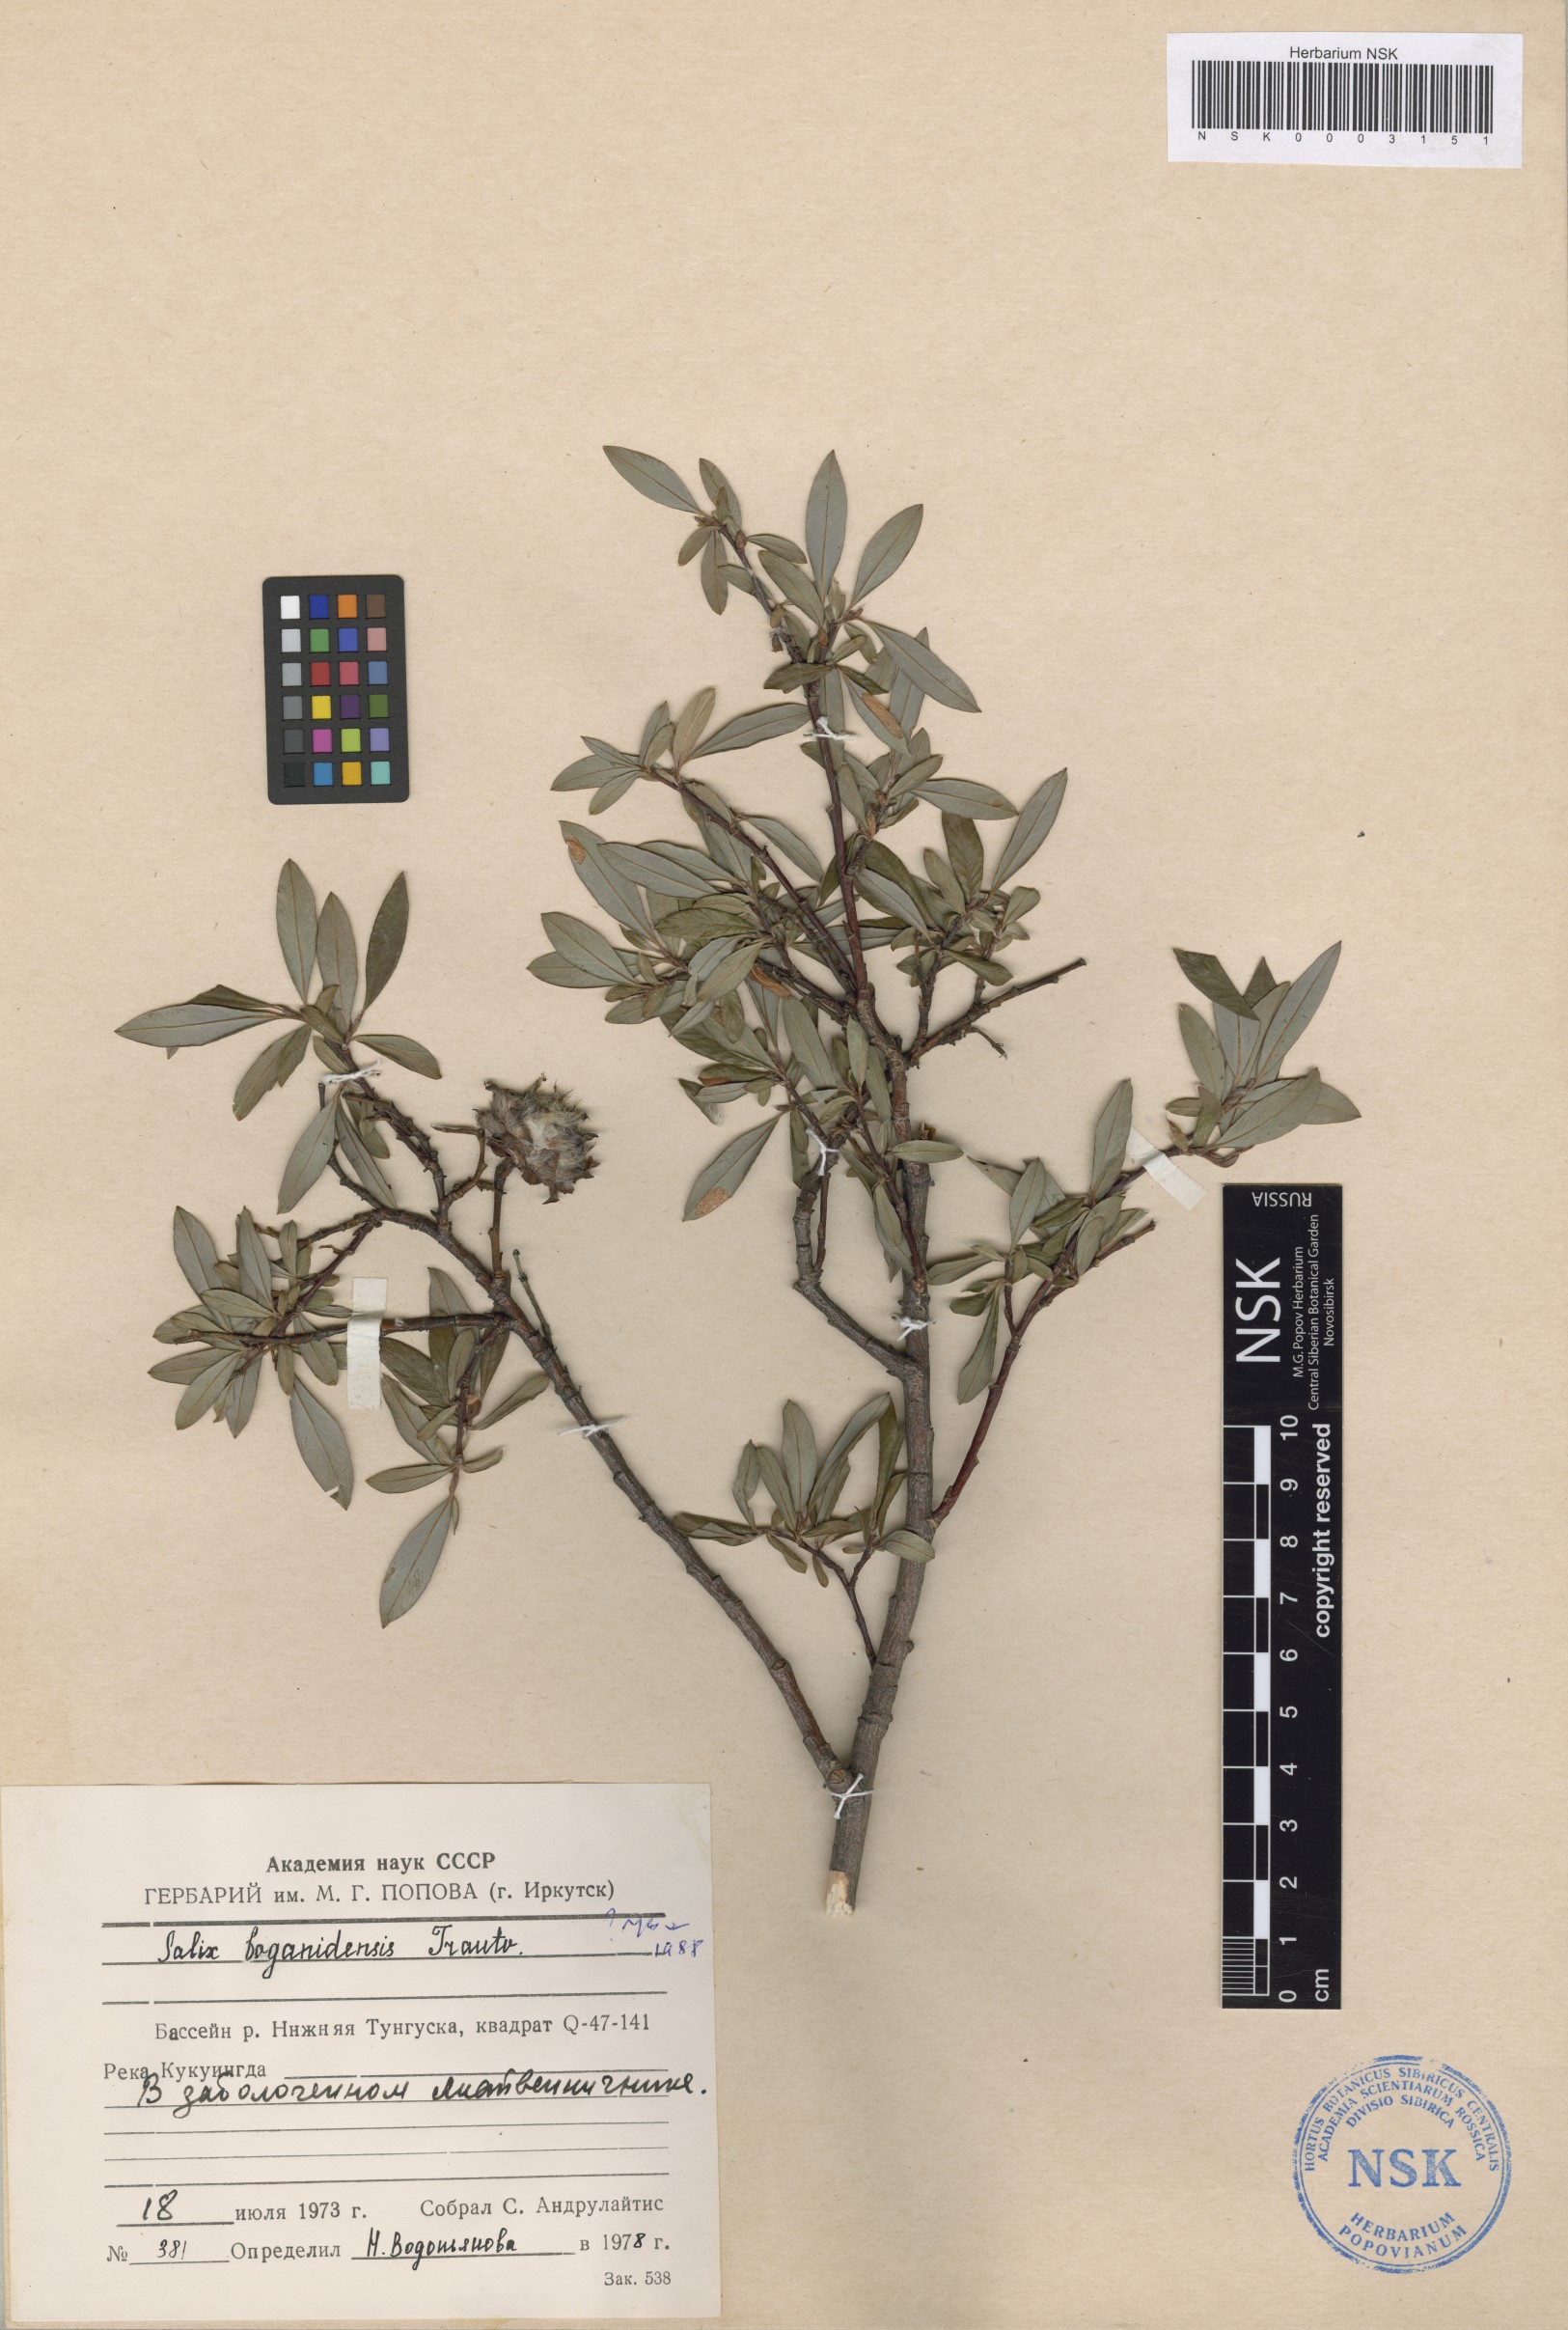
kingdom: Plantae
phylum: Tracheophyta
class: Magnoliopsida
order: Malpighiales
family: Salicaceae
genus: Salix
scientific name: Salix boganidensis
